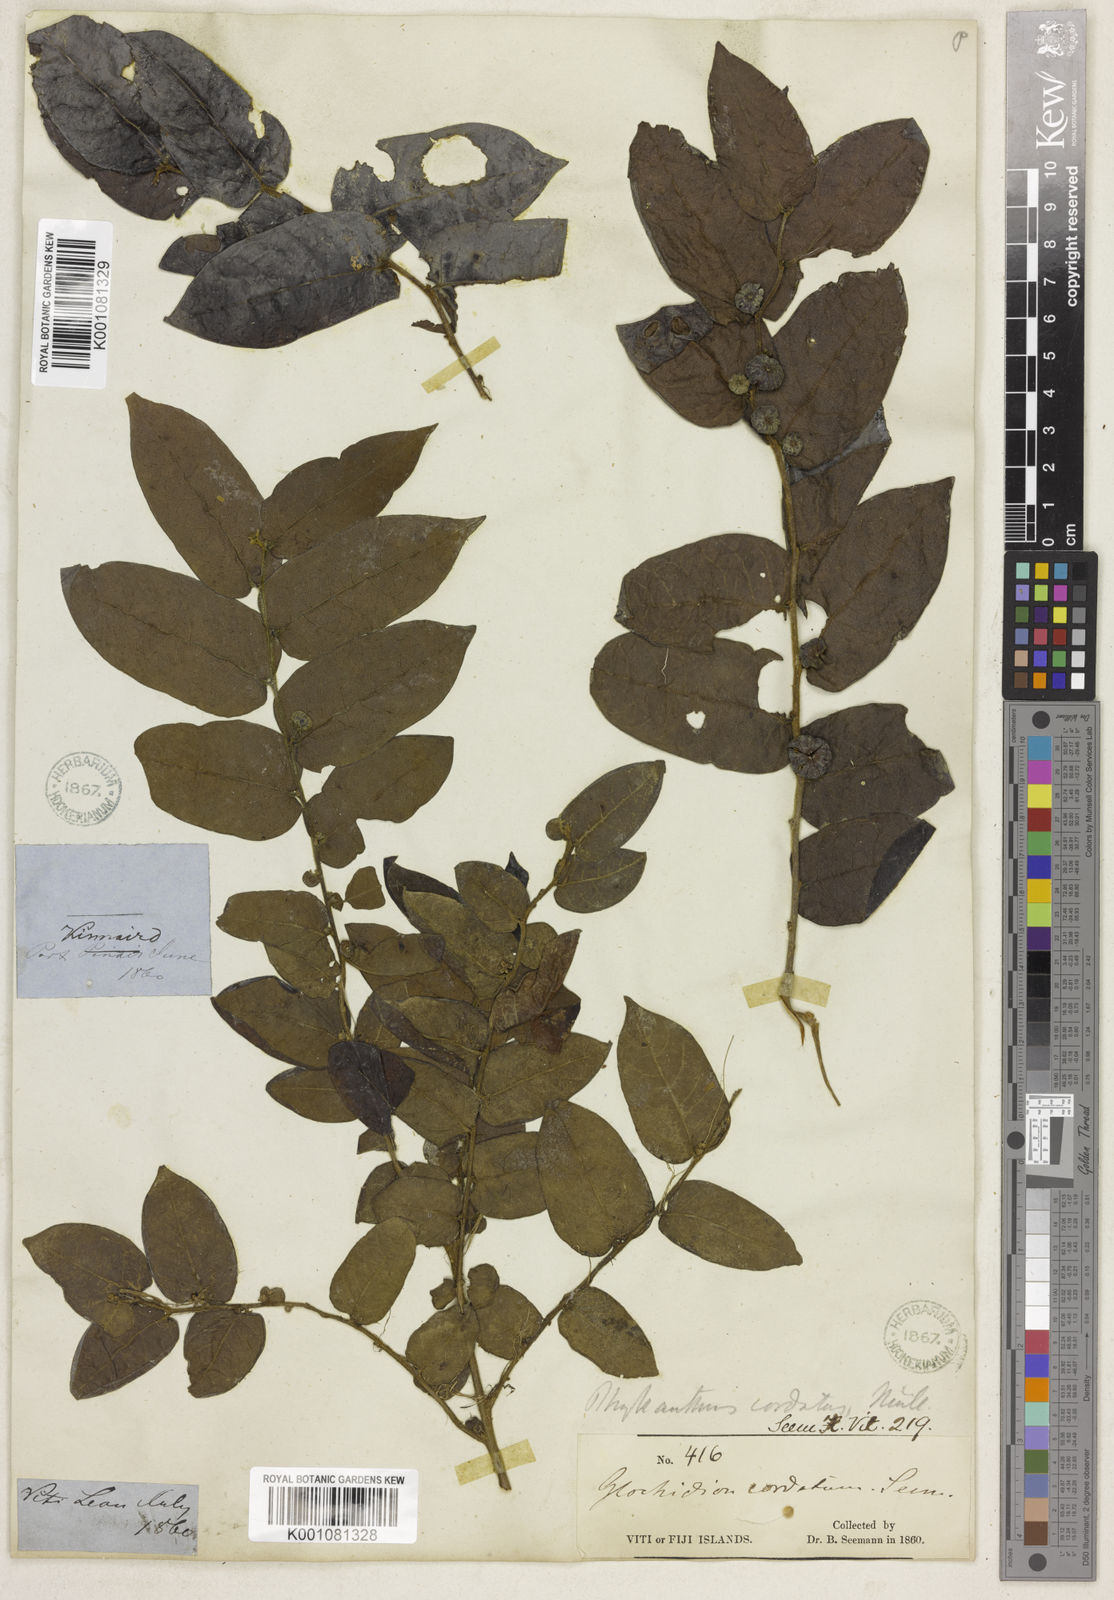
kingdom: Plantae
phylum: Tracheophyta
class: Magnoliopsida
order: Malpighiales
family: Phyllanthaceae
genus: Glochidion
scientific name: Glochidion
